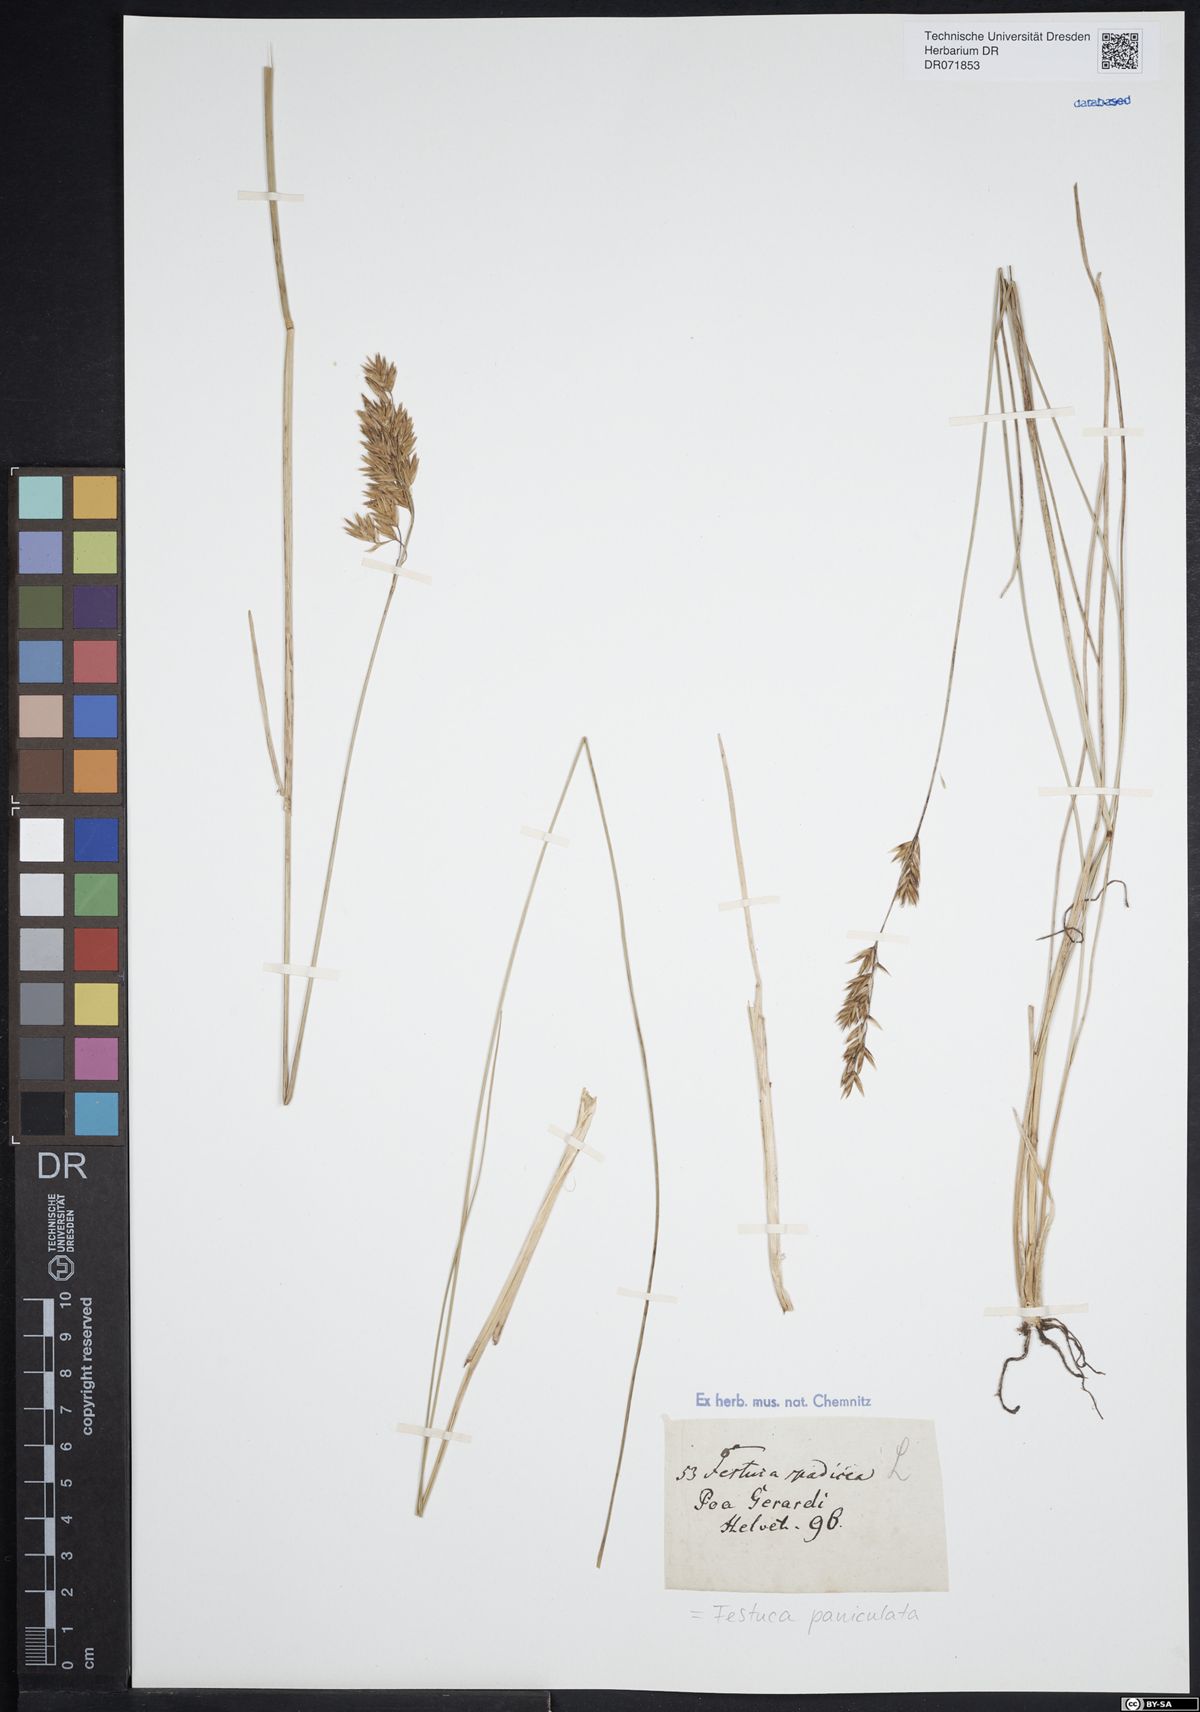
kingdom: Plantae
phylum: Tracheophyta
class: Liliopsida
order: Poales
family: Poaceae
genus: Patzkea
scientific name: Patzkea paniculata
